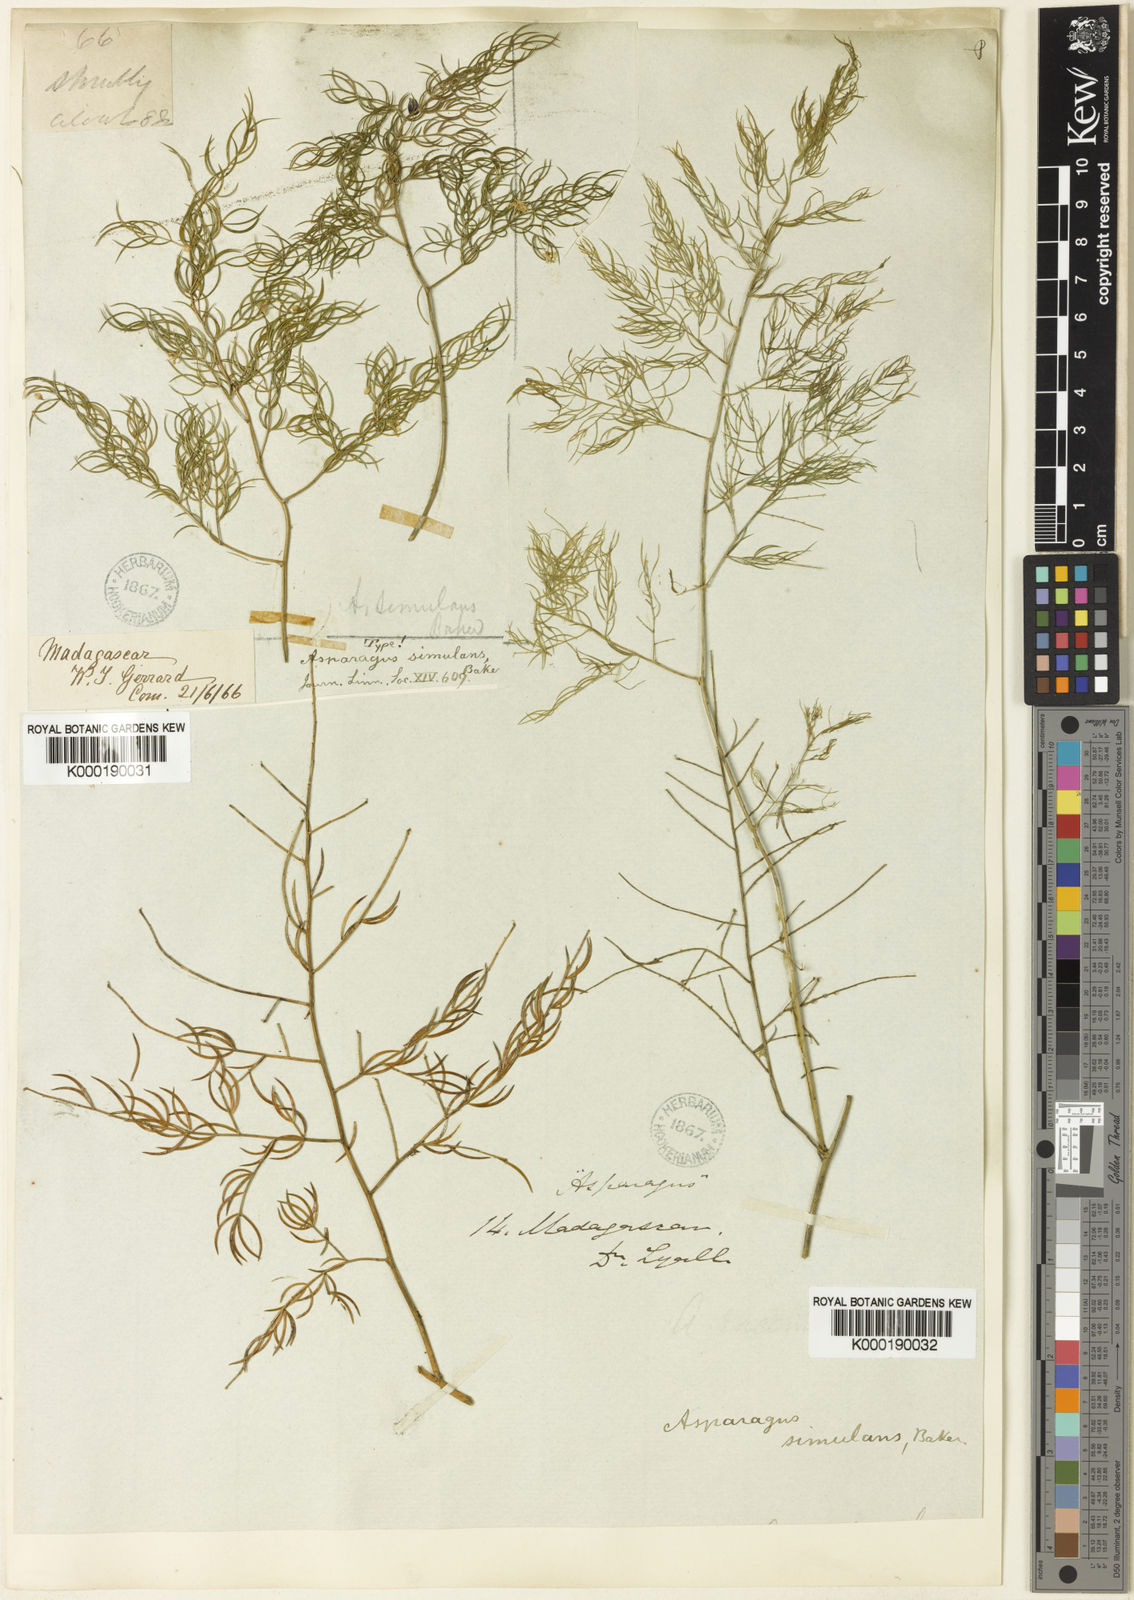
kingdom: Plantae
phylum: Tracheophyta
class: Liliopsida
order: Asparagales
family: Asparagaceae
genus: Asparagus
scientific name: Asparagus simulans
